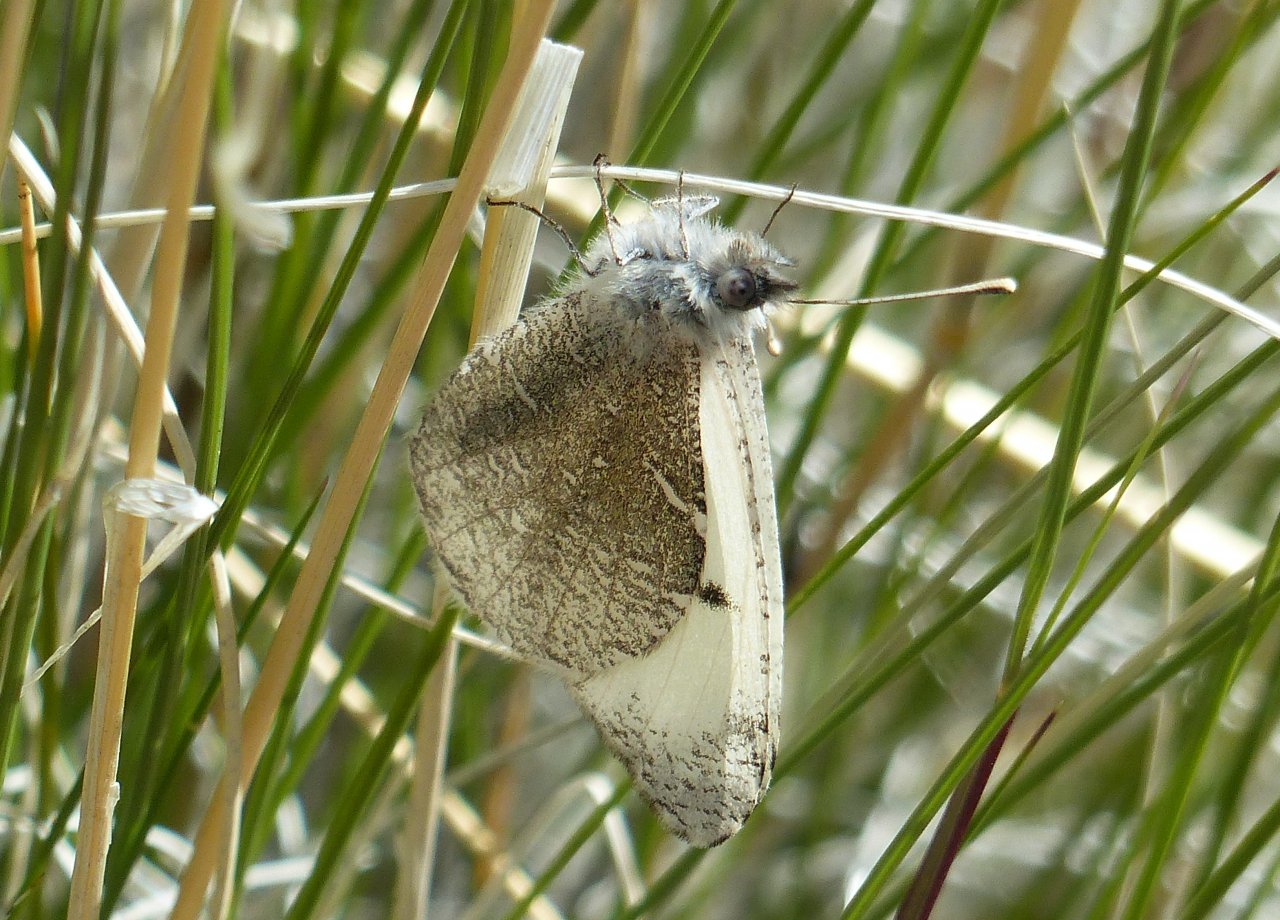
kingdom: Animalia
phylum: Arthropoda
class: Insecta
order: Lepidoptera
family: Pieridae
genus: Anthocharis
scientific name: Anthocharis lanceolata
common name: Gray Marble
